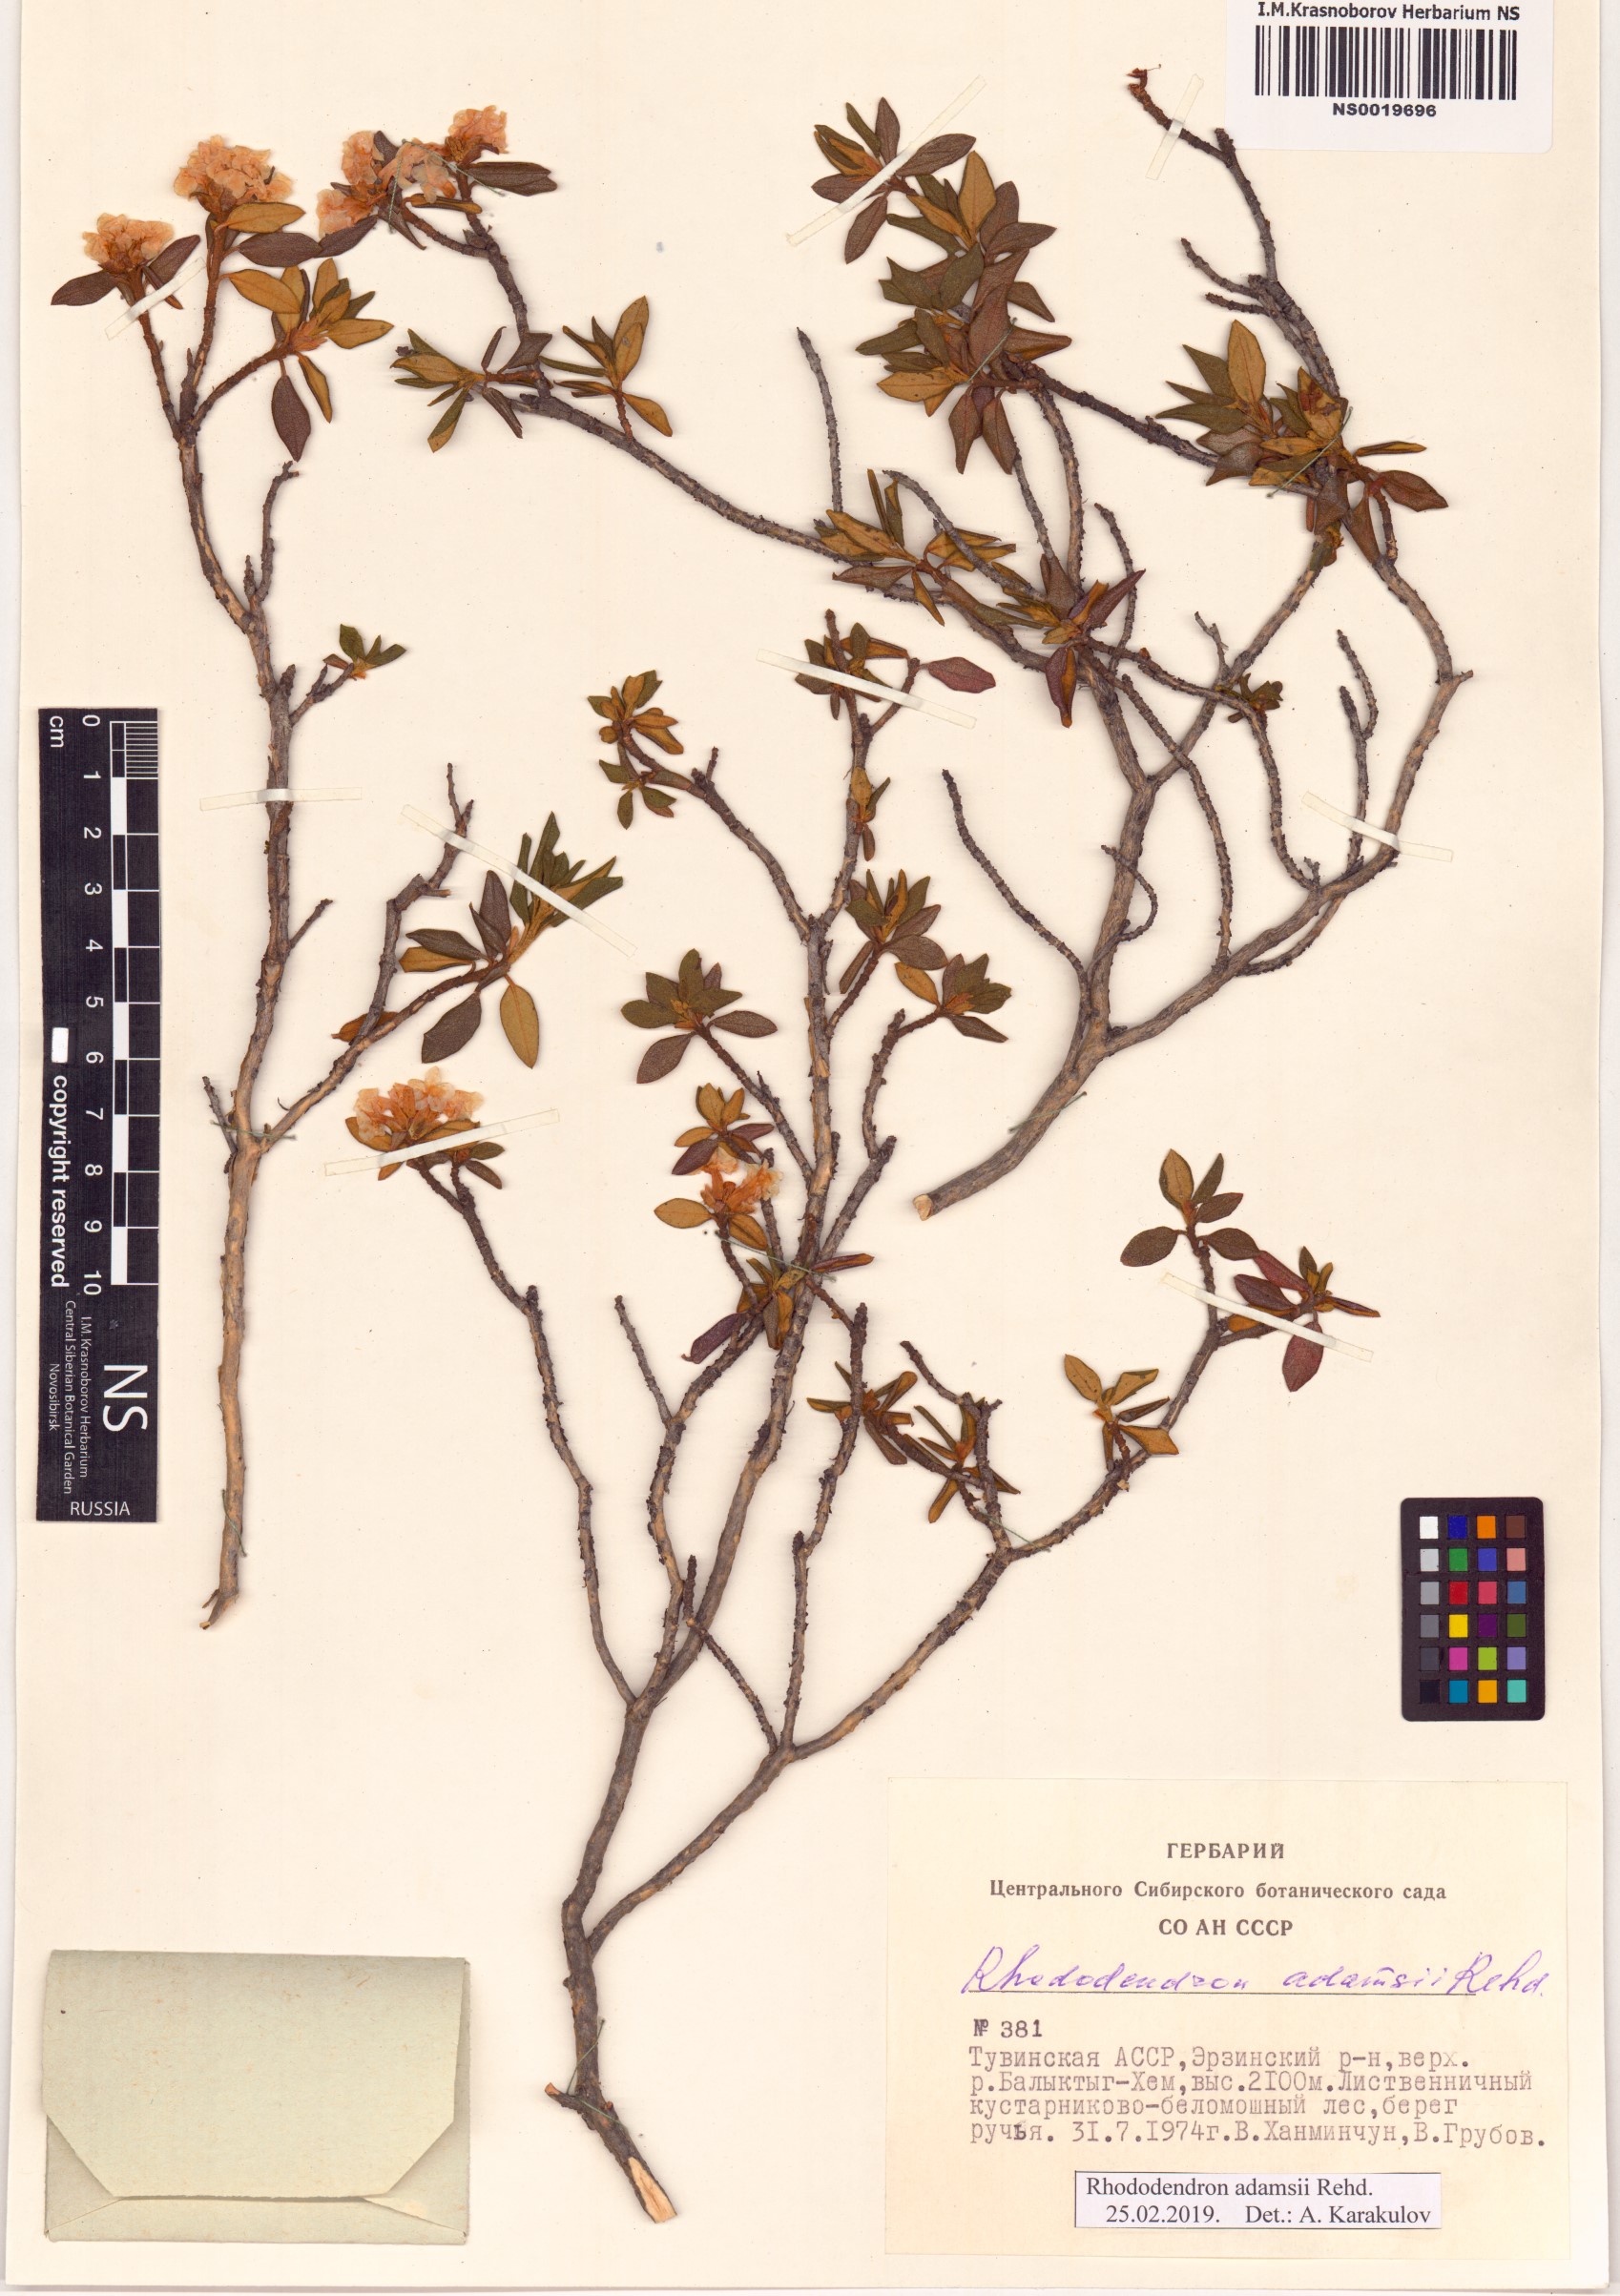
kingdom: Plantae
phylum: Tracheophyta
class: Magnoliopsida
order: Ericales
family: Ericaceae
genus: Rhododendron
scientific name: Rhododendron adamsii
